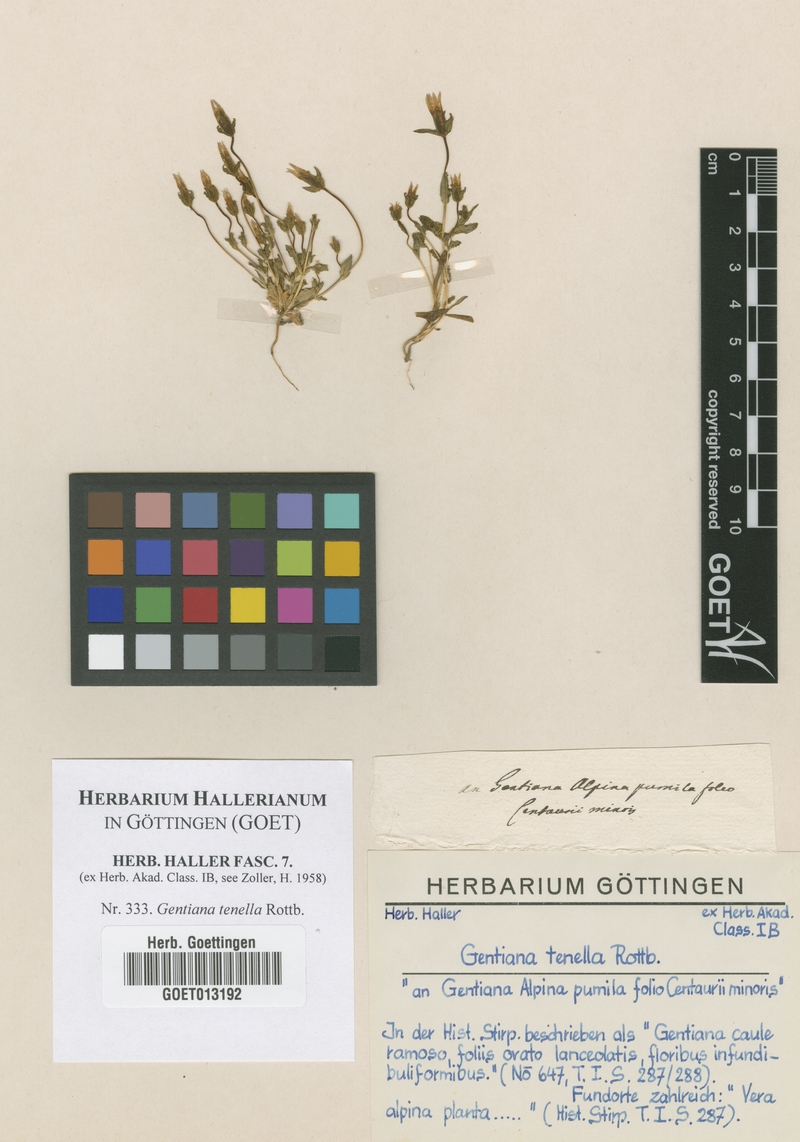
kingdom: Plantae
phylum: Tracheophyta
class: Magnoliopsida
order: Gentianales
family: Gentianaceae
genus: Comastoma
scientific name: Comastoma tenellum
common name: Dane's dwarf gentian
